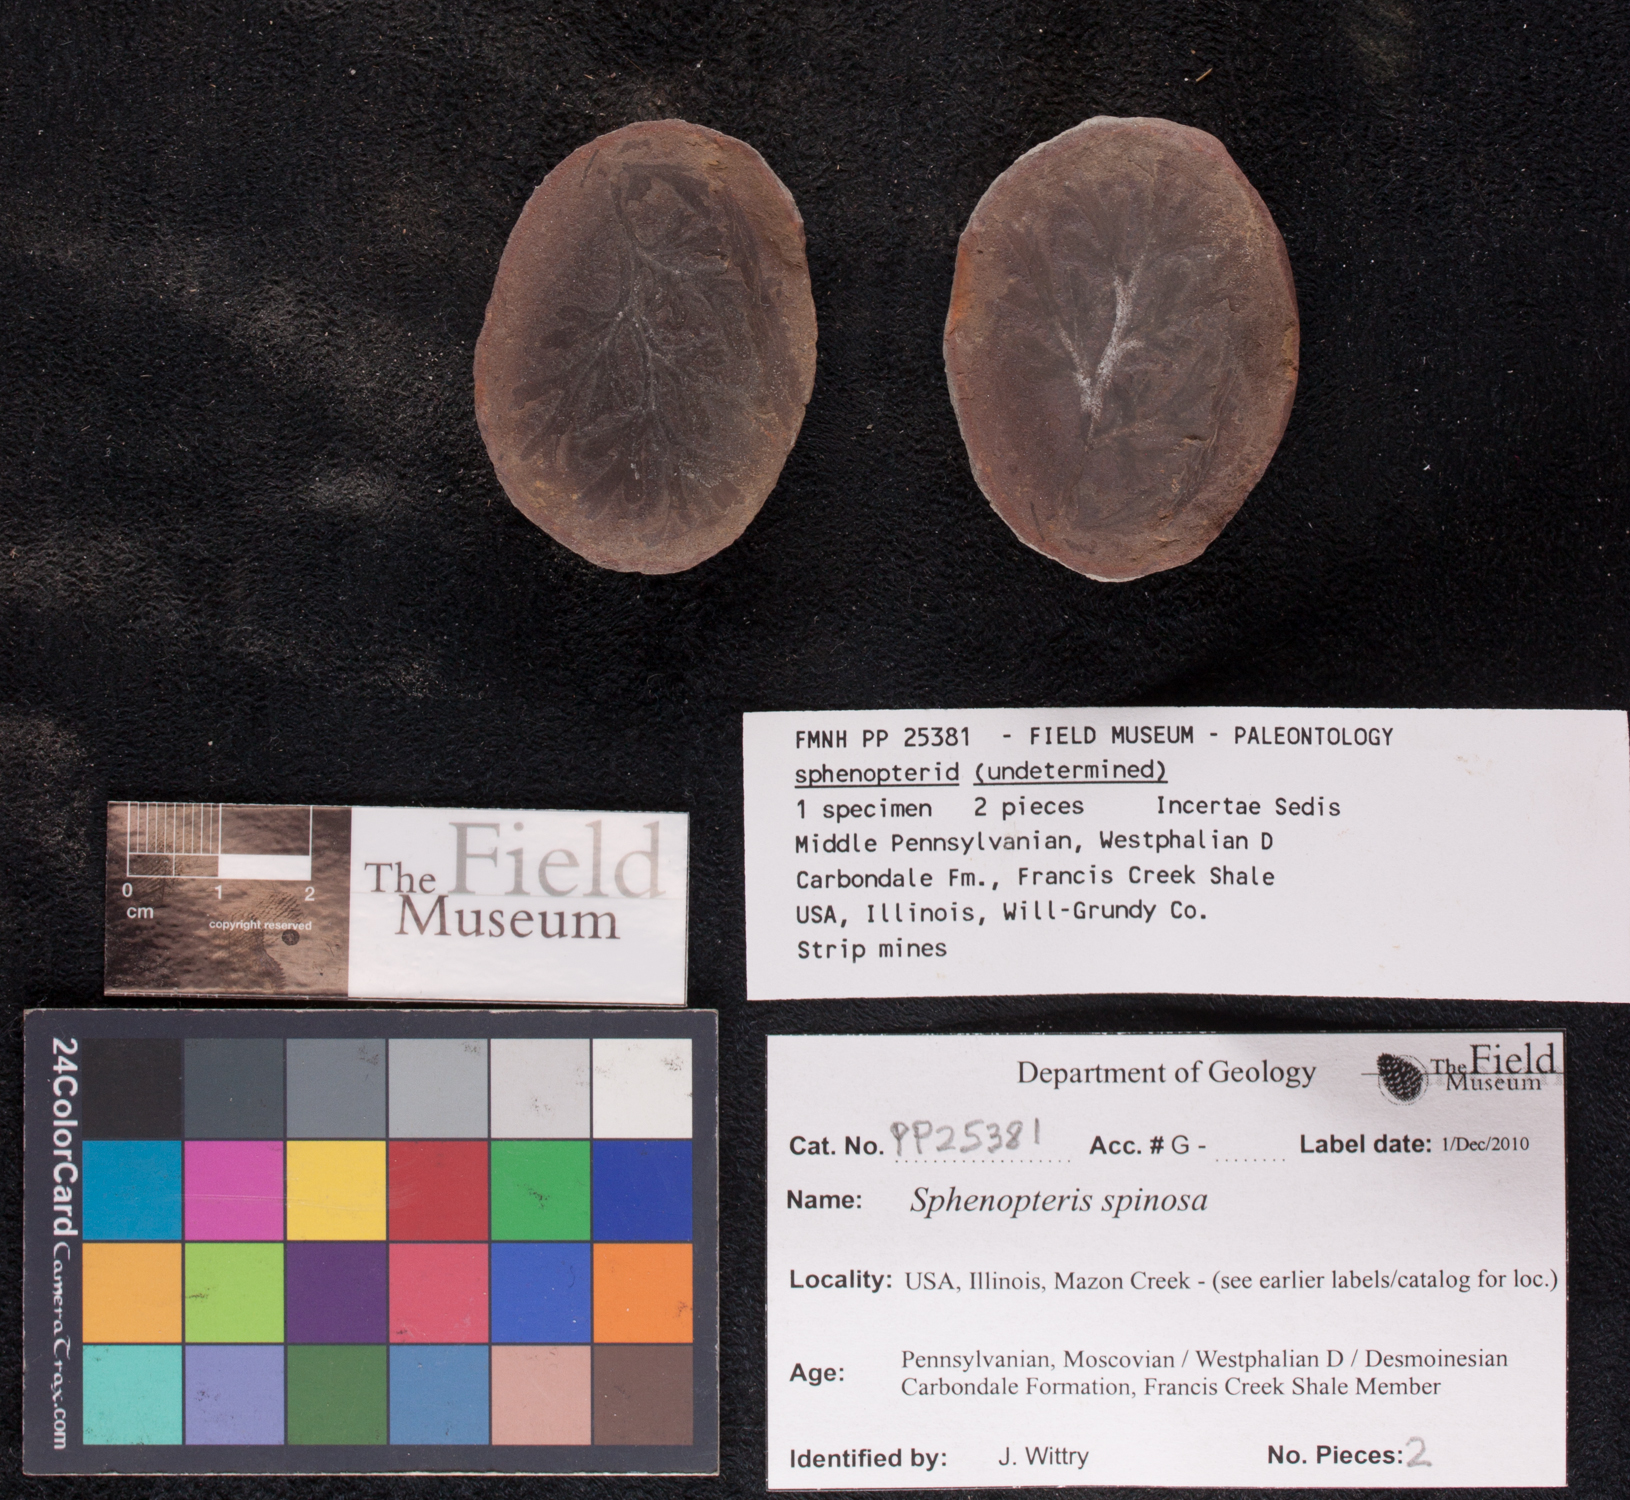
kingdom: Plantae
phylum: Tracheophyta
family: Lyginopteridaceae
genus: Sphenopteris
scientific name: Sphenopteris
